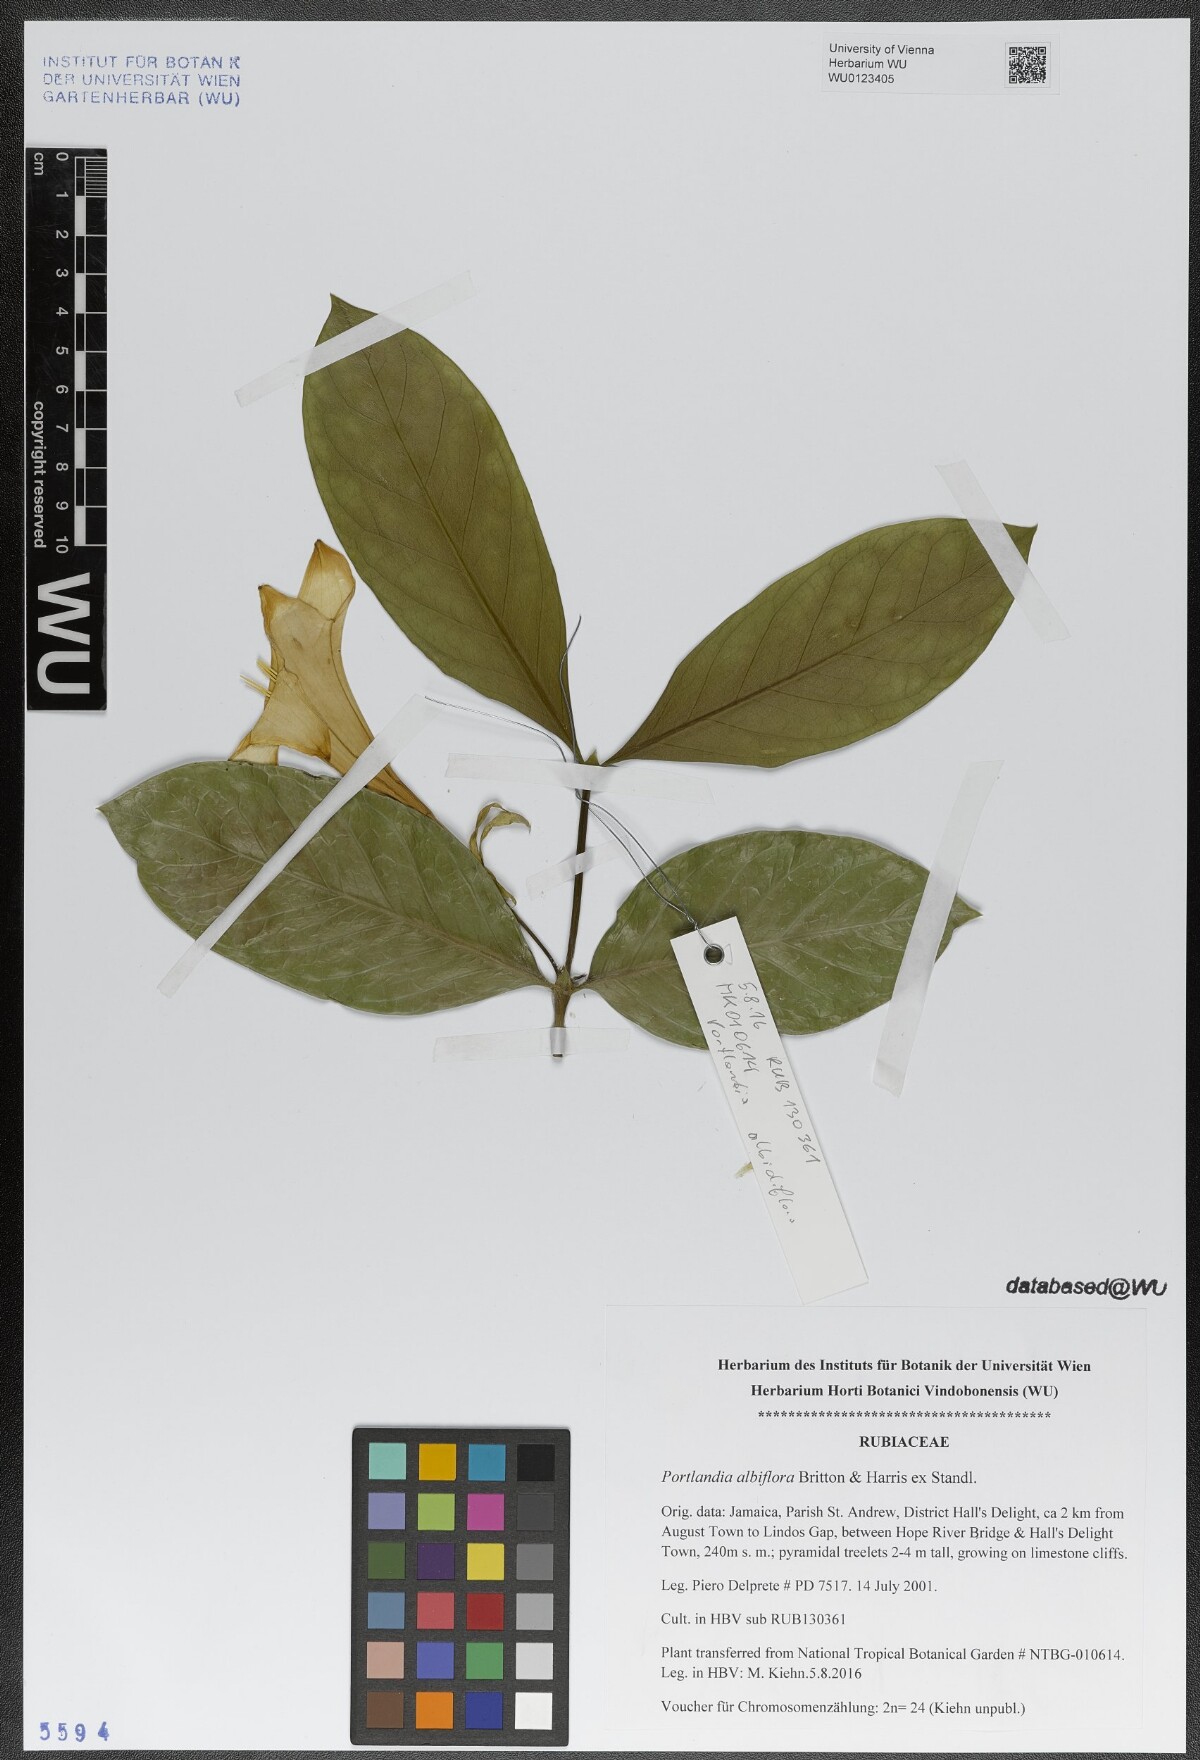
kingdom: Plantae
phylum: Tracheophyta
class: Magnoliopsida
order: Gentianales
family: Rubiaceae
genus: Portlandia
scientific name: Portlandia platantha
